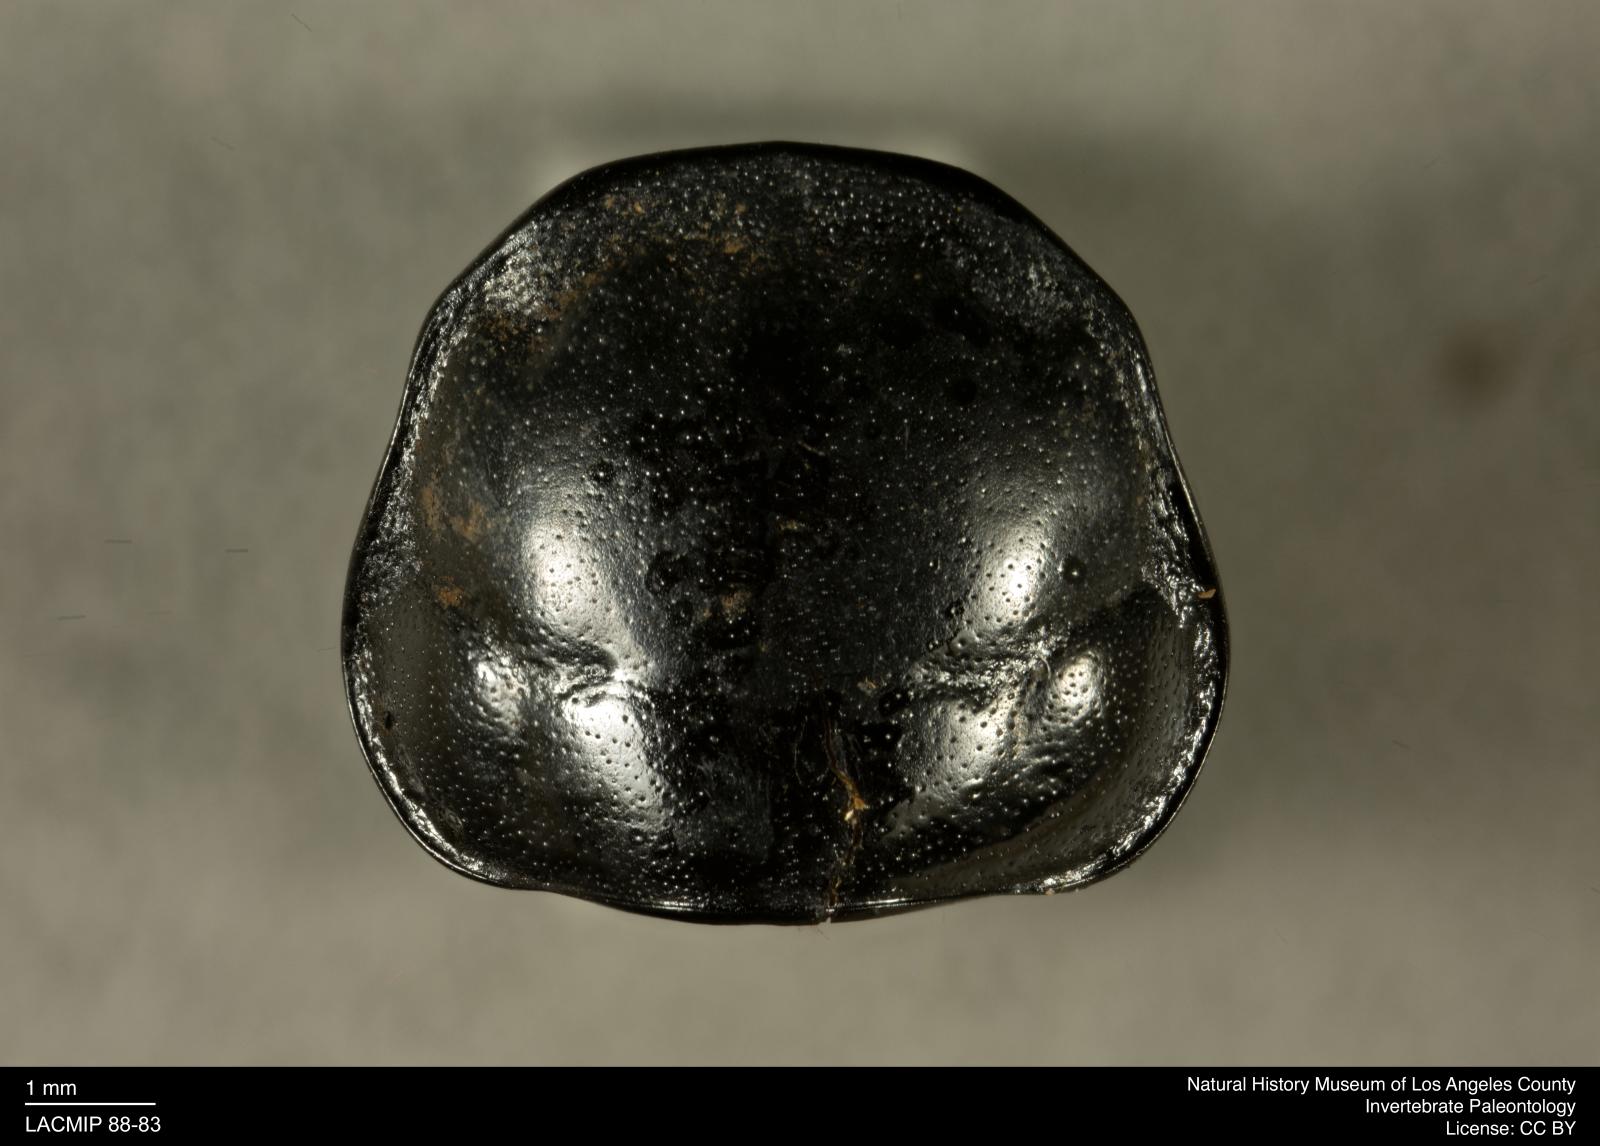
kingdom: Animalia
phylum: Arthropoda
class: Insecta
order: Coleoptera
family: Staphylinidae
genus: Nicrophorus
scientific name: Nicrophorus marginatus
